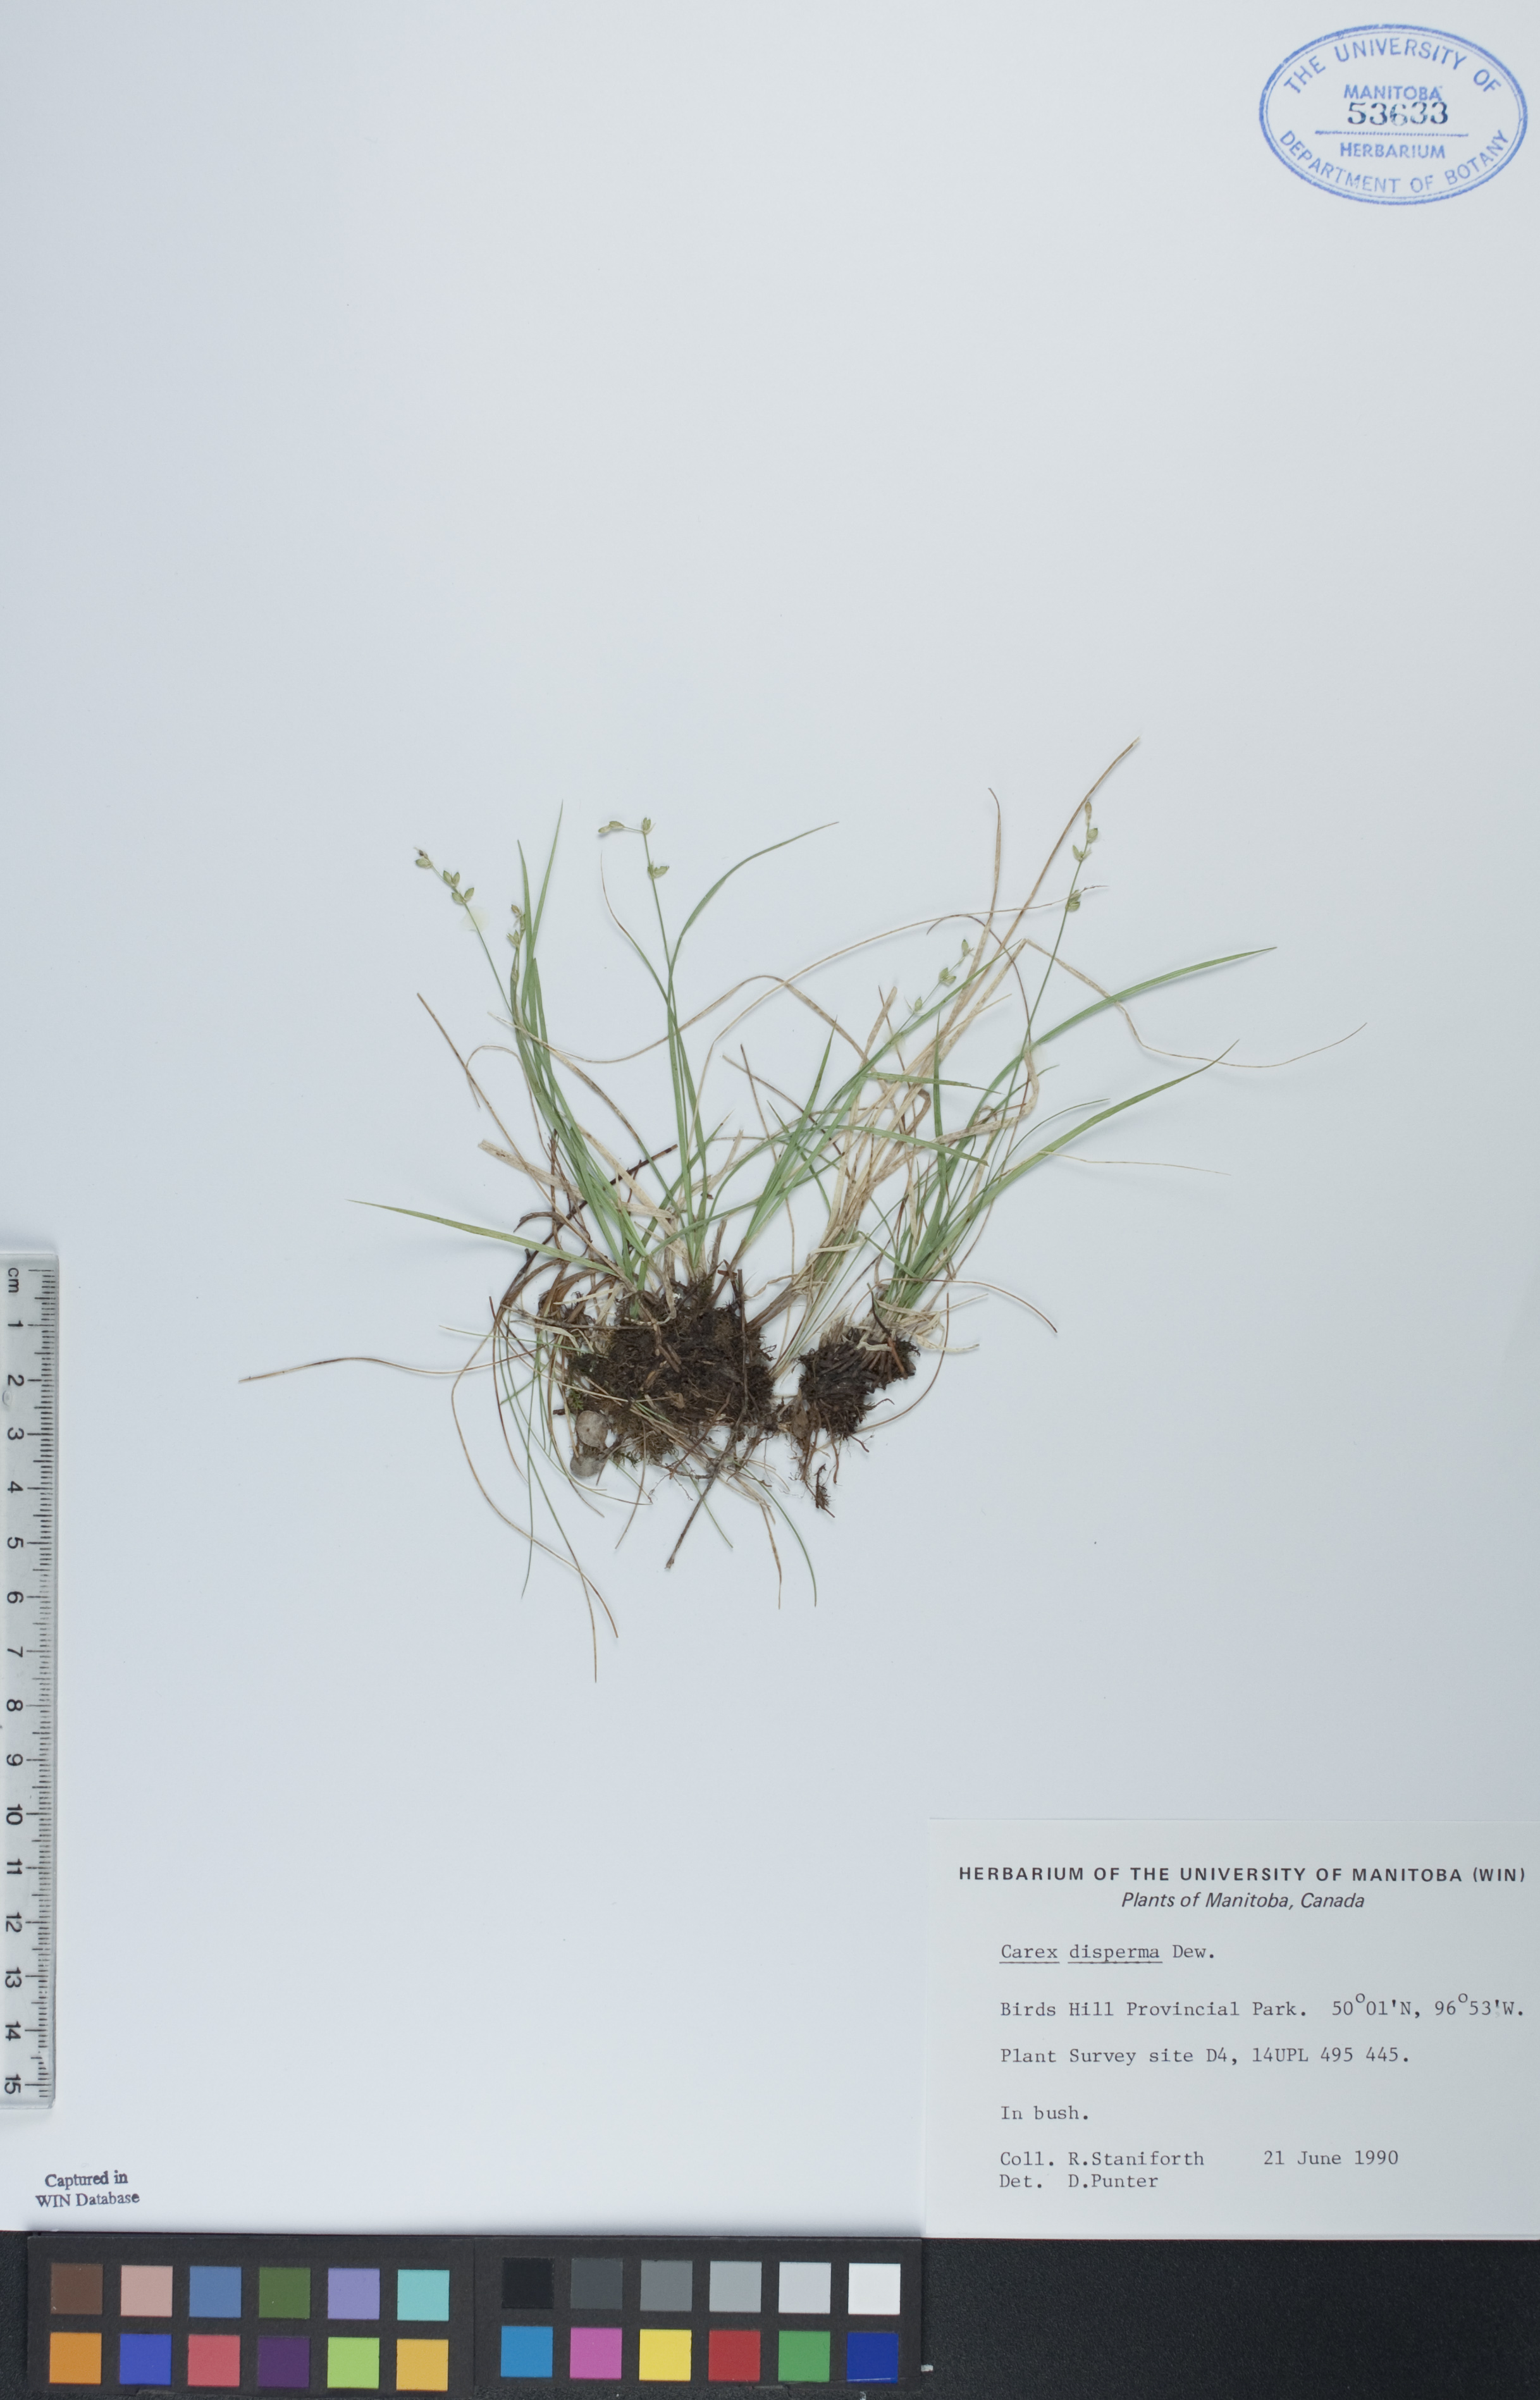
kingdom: Plantae
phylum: Tracheophyta
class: Liliopsida
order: Poales
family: Cyperaceae
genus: Carex
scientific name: Carex disperma
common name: Short-leaved sedge
